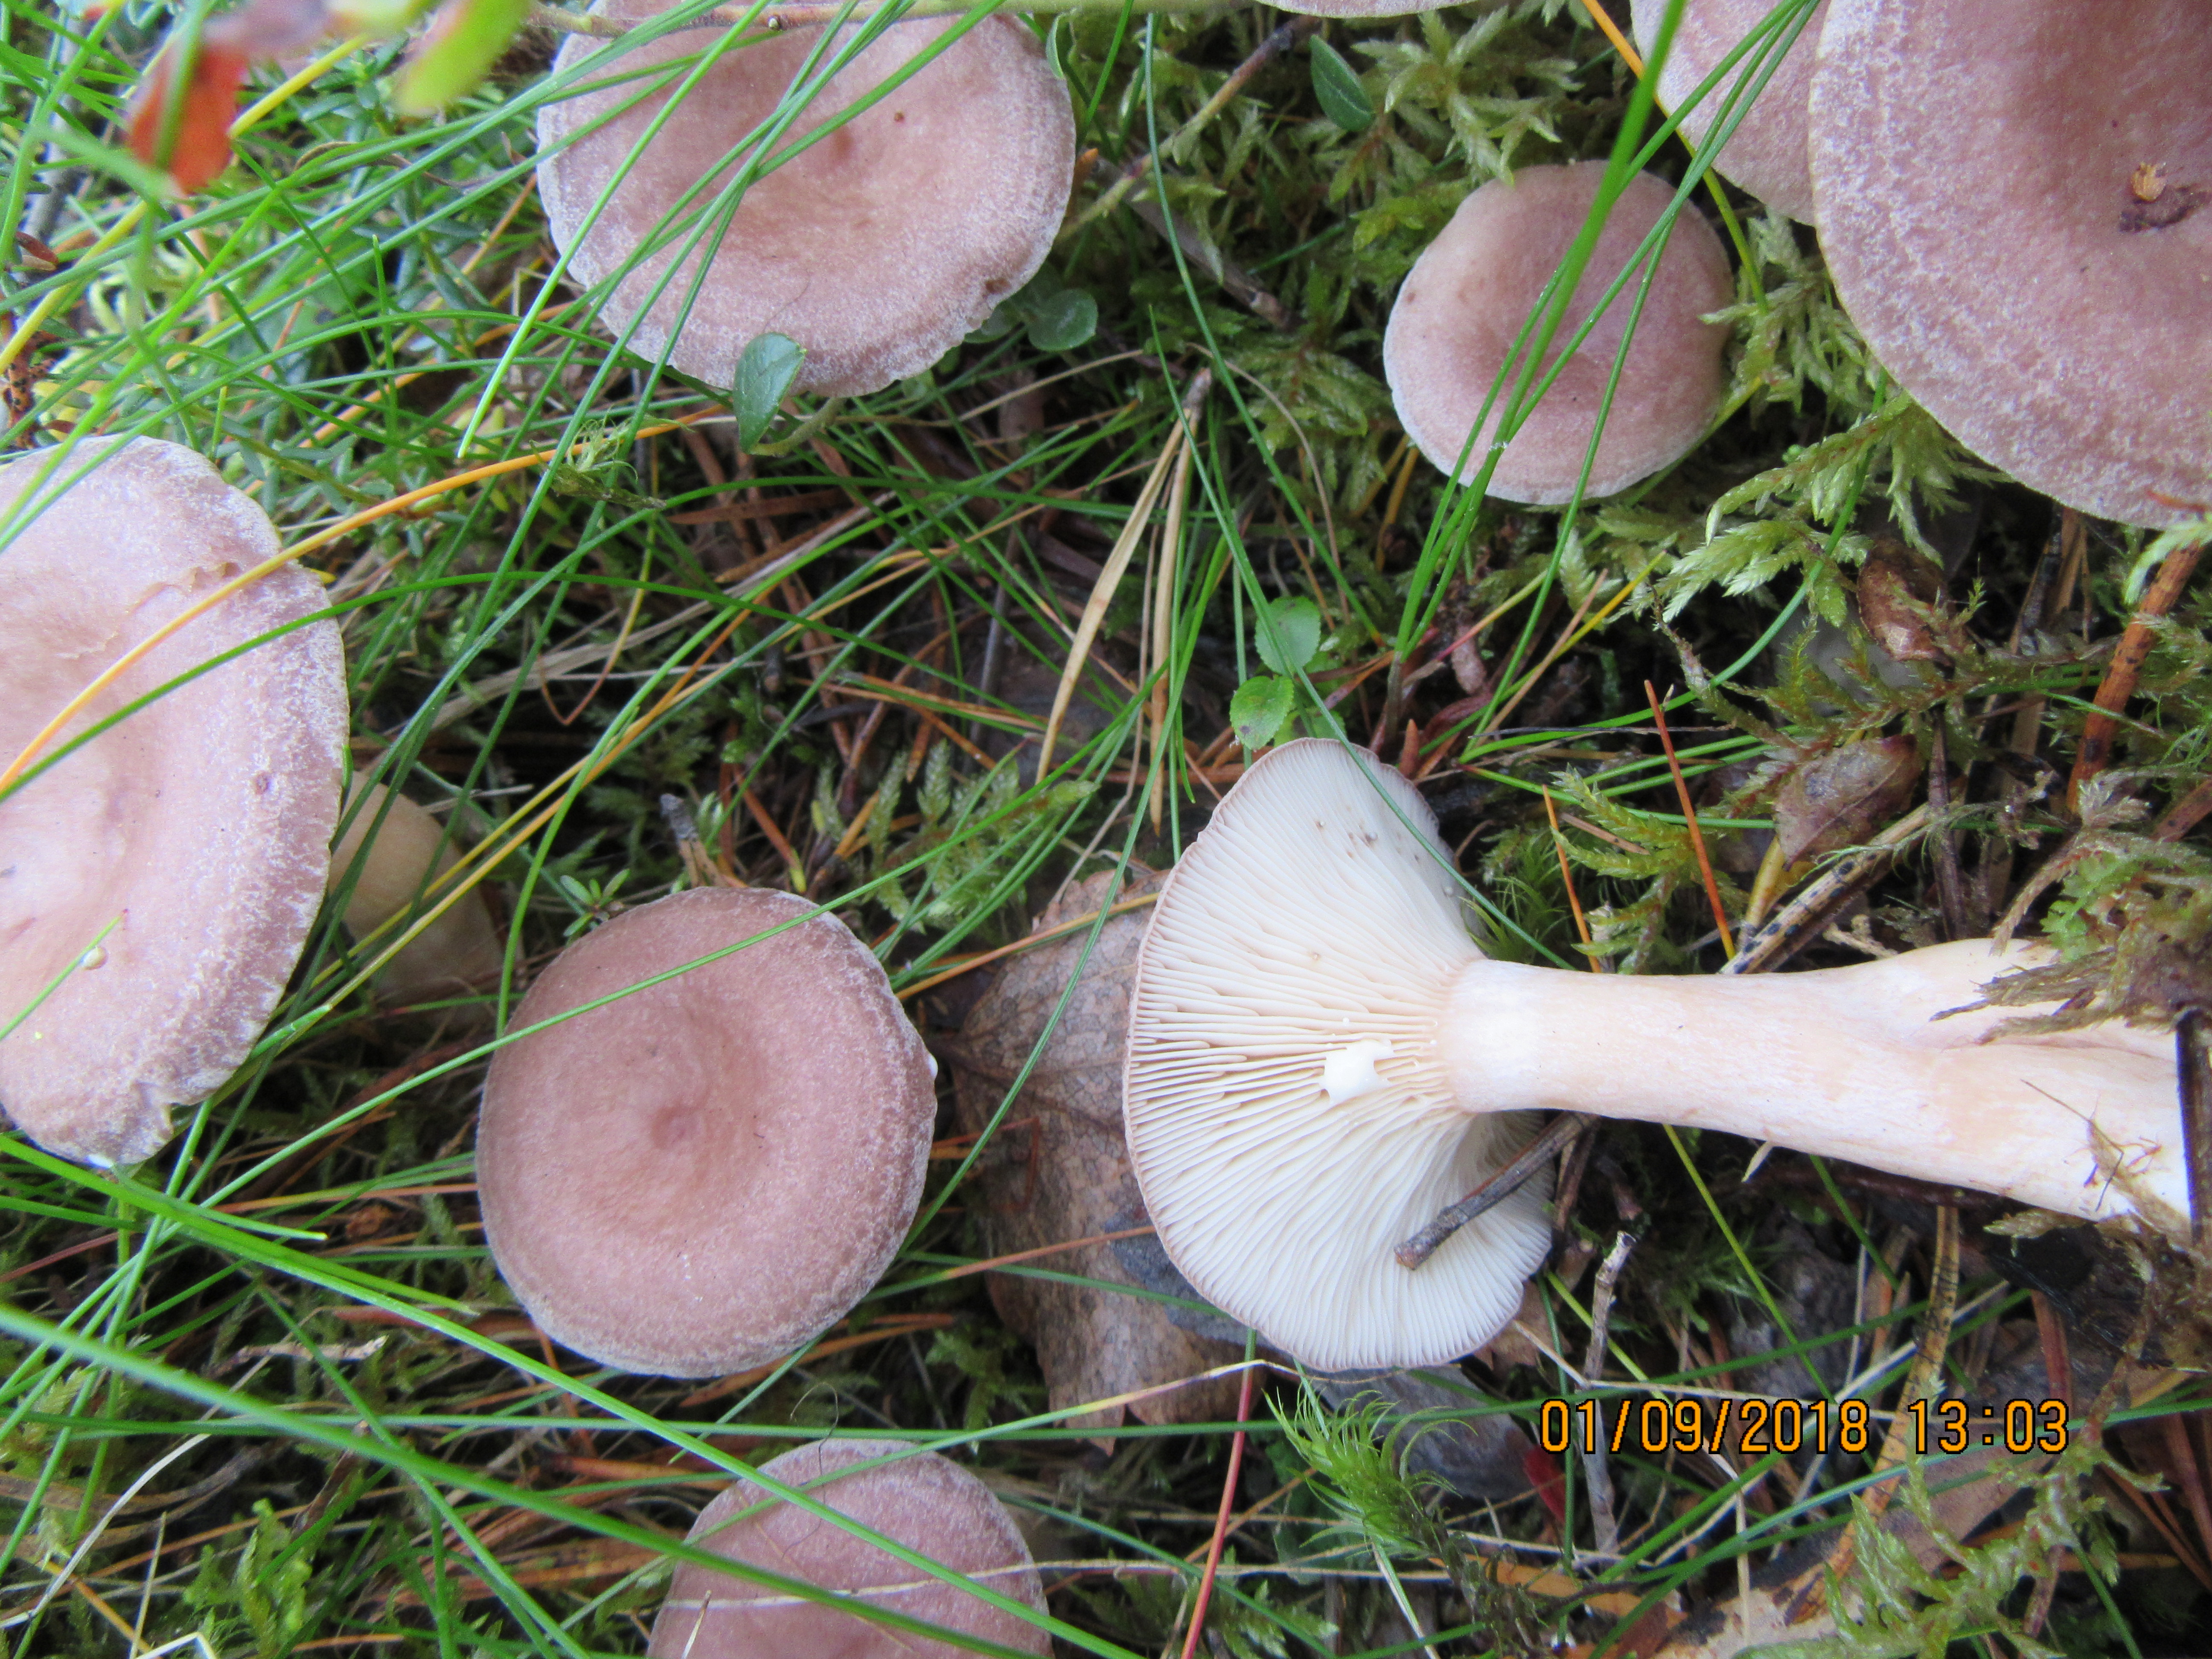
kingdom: Fungi
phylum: Basidiomycota
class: Agaricomycetes
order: Russulales
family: Russulaceae
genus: Lactarius
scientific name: Lactarius vietus
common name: Grey milk-cap
